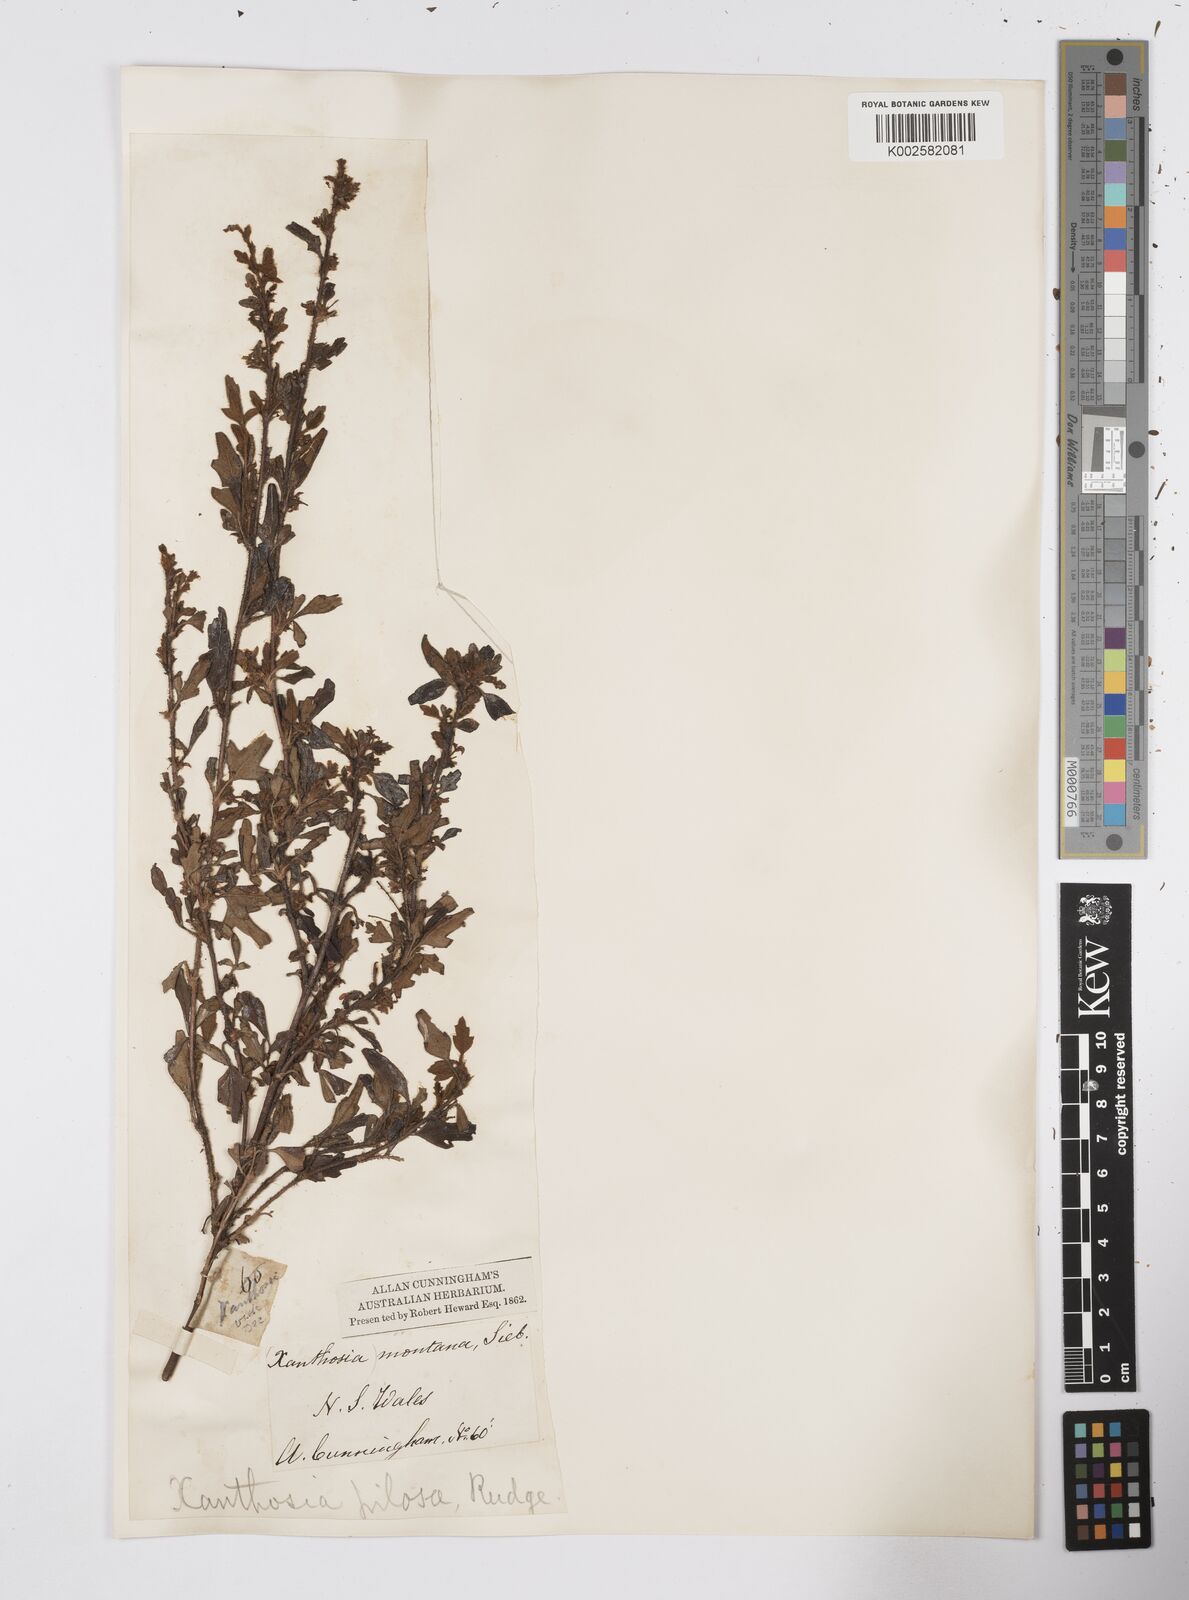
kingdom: Plantae
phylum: Tracheophyta
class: Magnoliopsida
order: Apiales
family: Apiaceae
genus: Xanthosia
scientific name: Xanthosia pilosa
